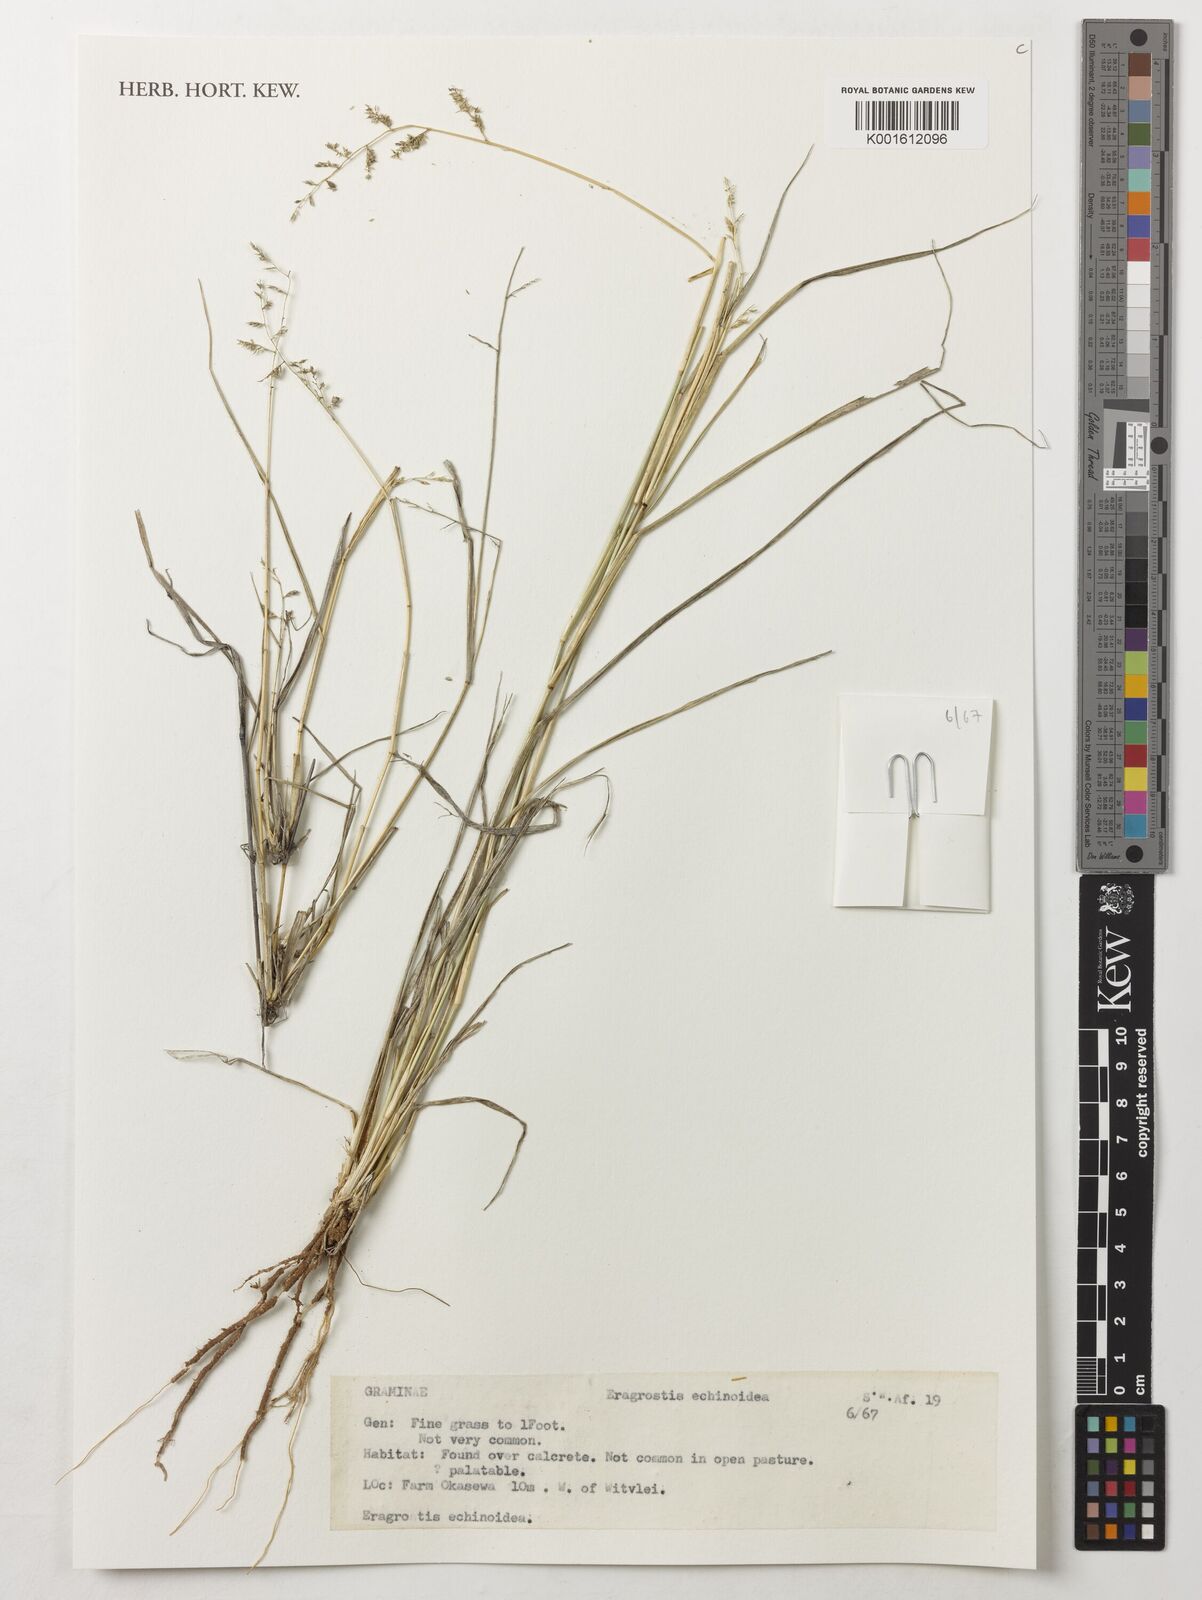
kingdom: Plantae
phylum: Tracheophyta
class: Liliopsida
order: Poales
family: Poaceae
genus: Eragrostis
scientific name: Eragrostis
